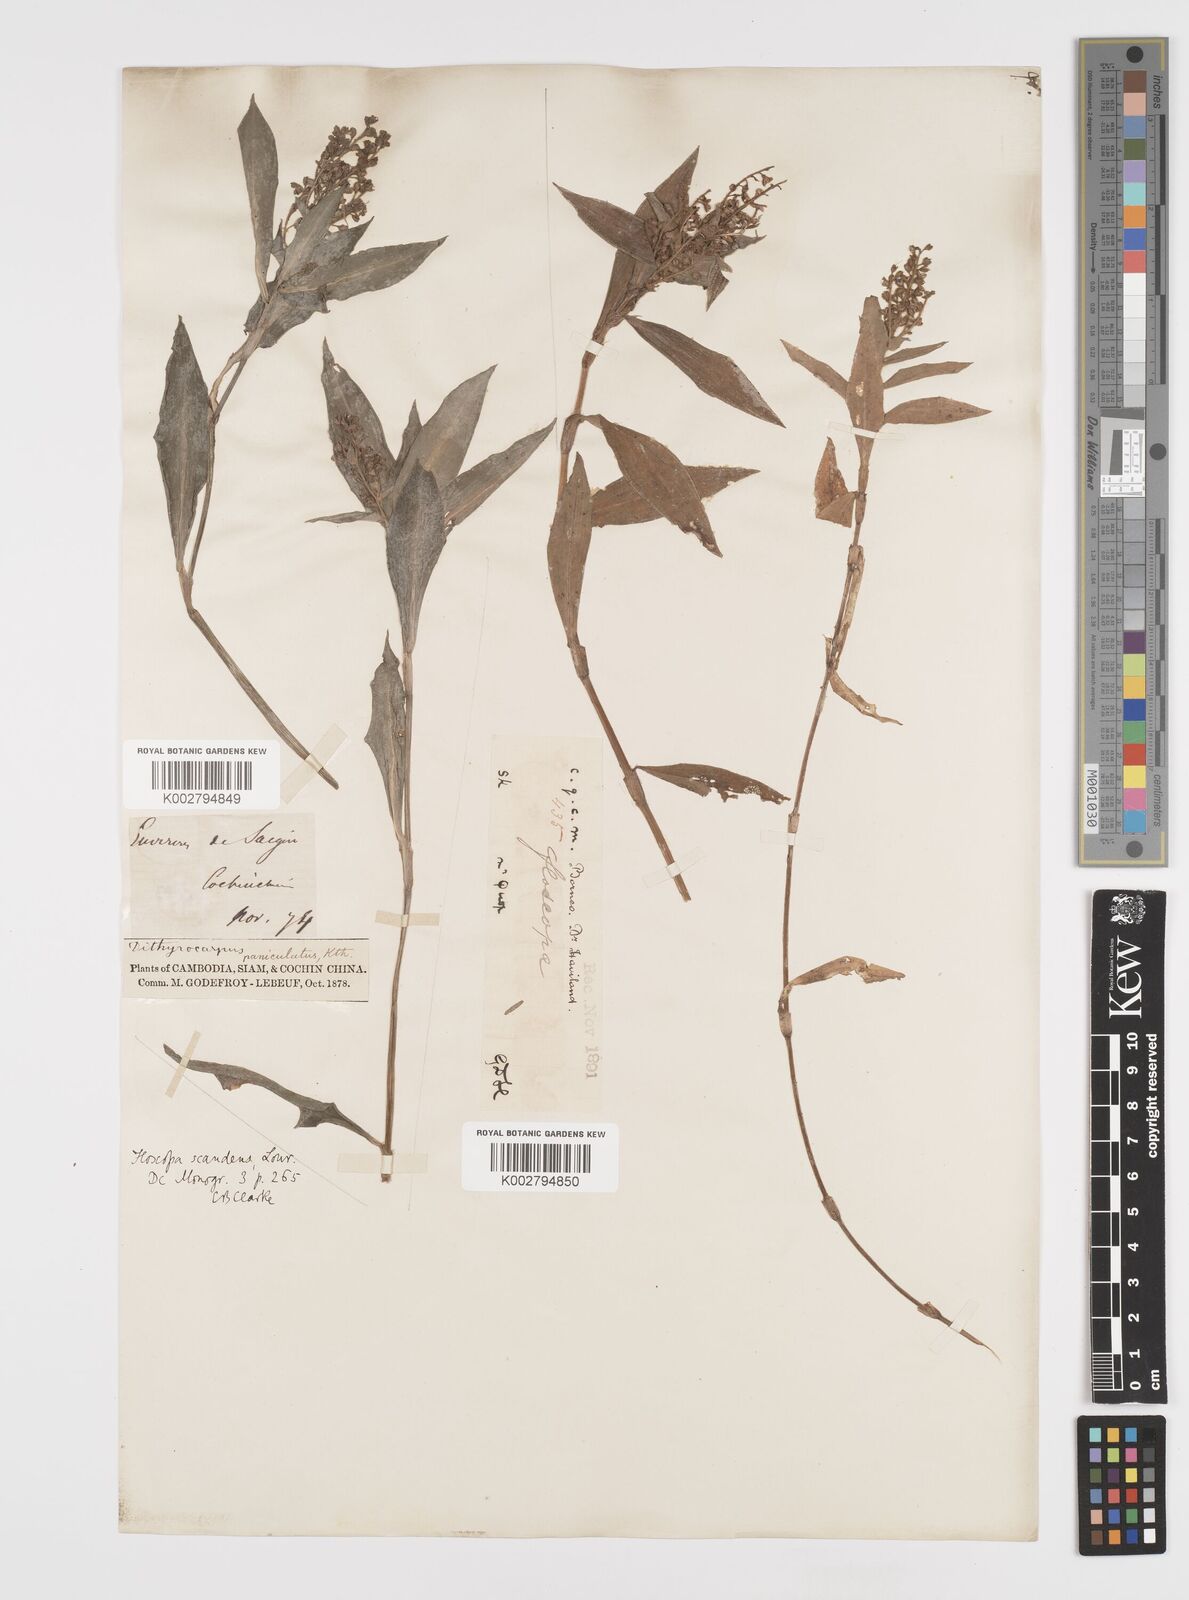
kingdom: Plantae
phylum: Tracheophyta
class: Liliopsida
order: Commelinales
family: Commelinaceae
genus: Floscopa
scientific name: Floscopa scandens
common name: Climbing flower cup
